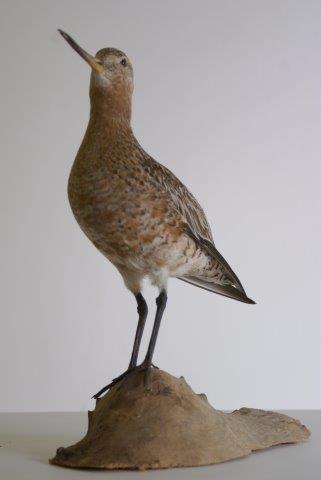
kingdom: Animalia
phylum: Chordata
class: Aves
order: Charadriiformes
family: Scolopacidae
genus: Limosa
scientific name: Limosa lapponica
